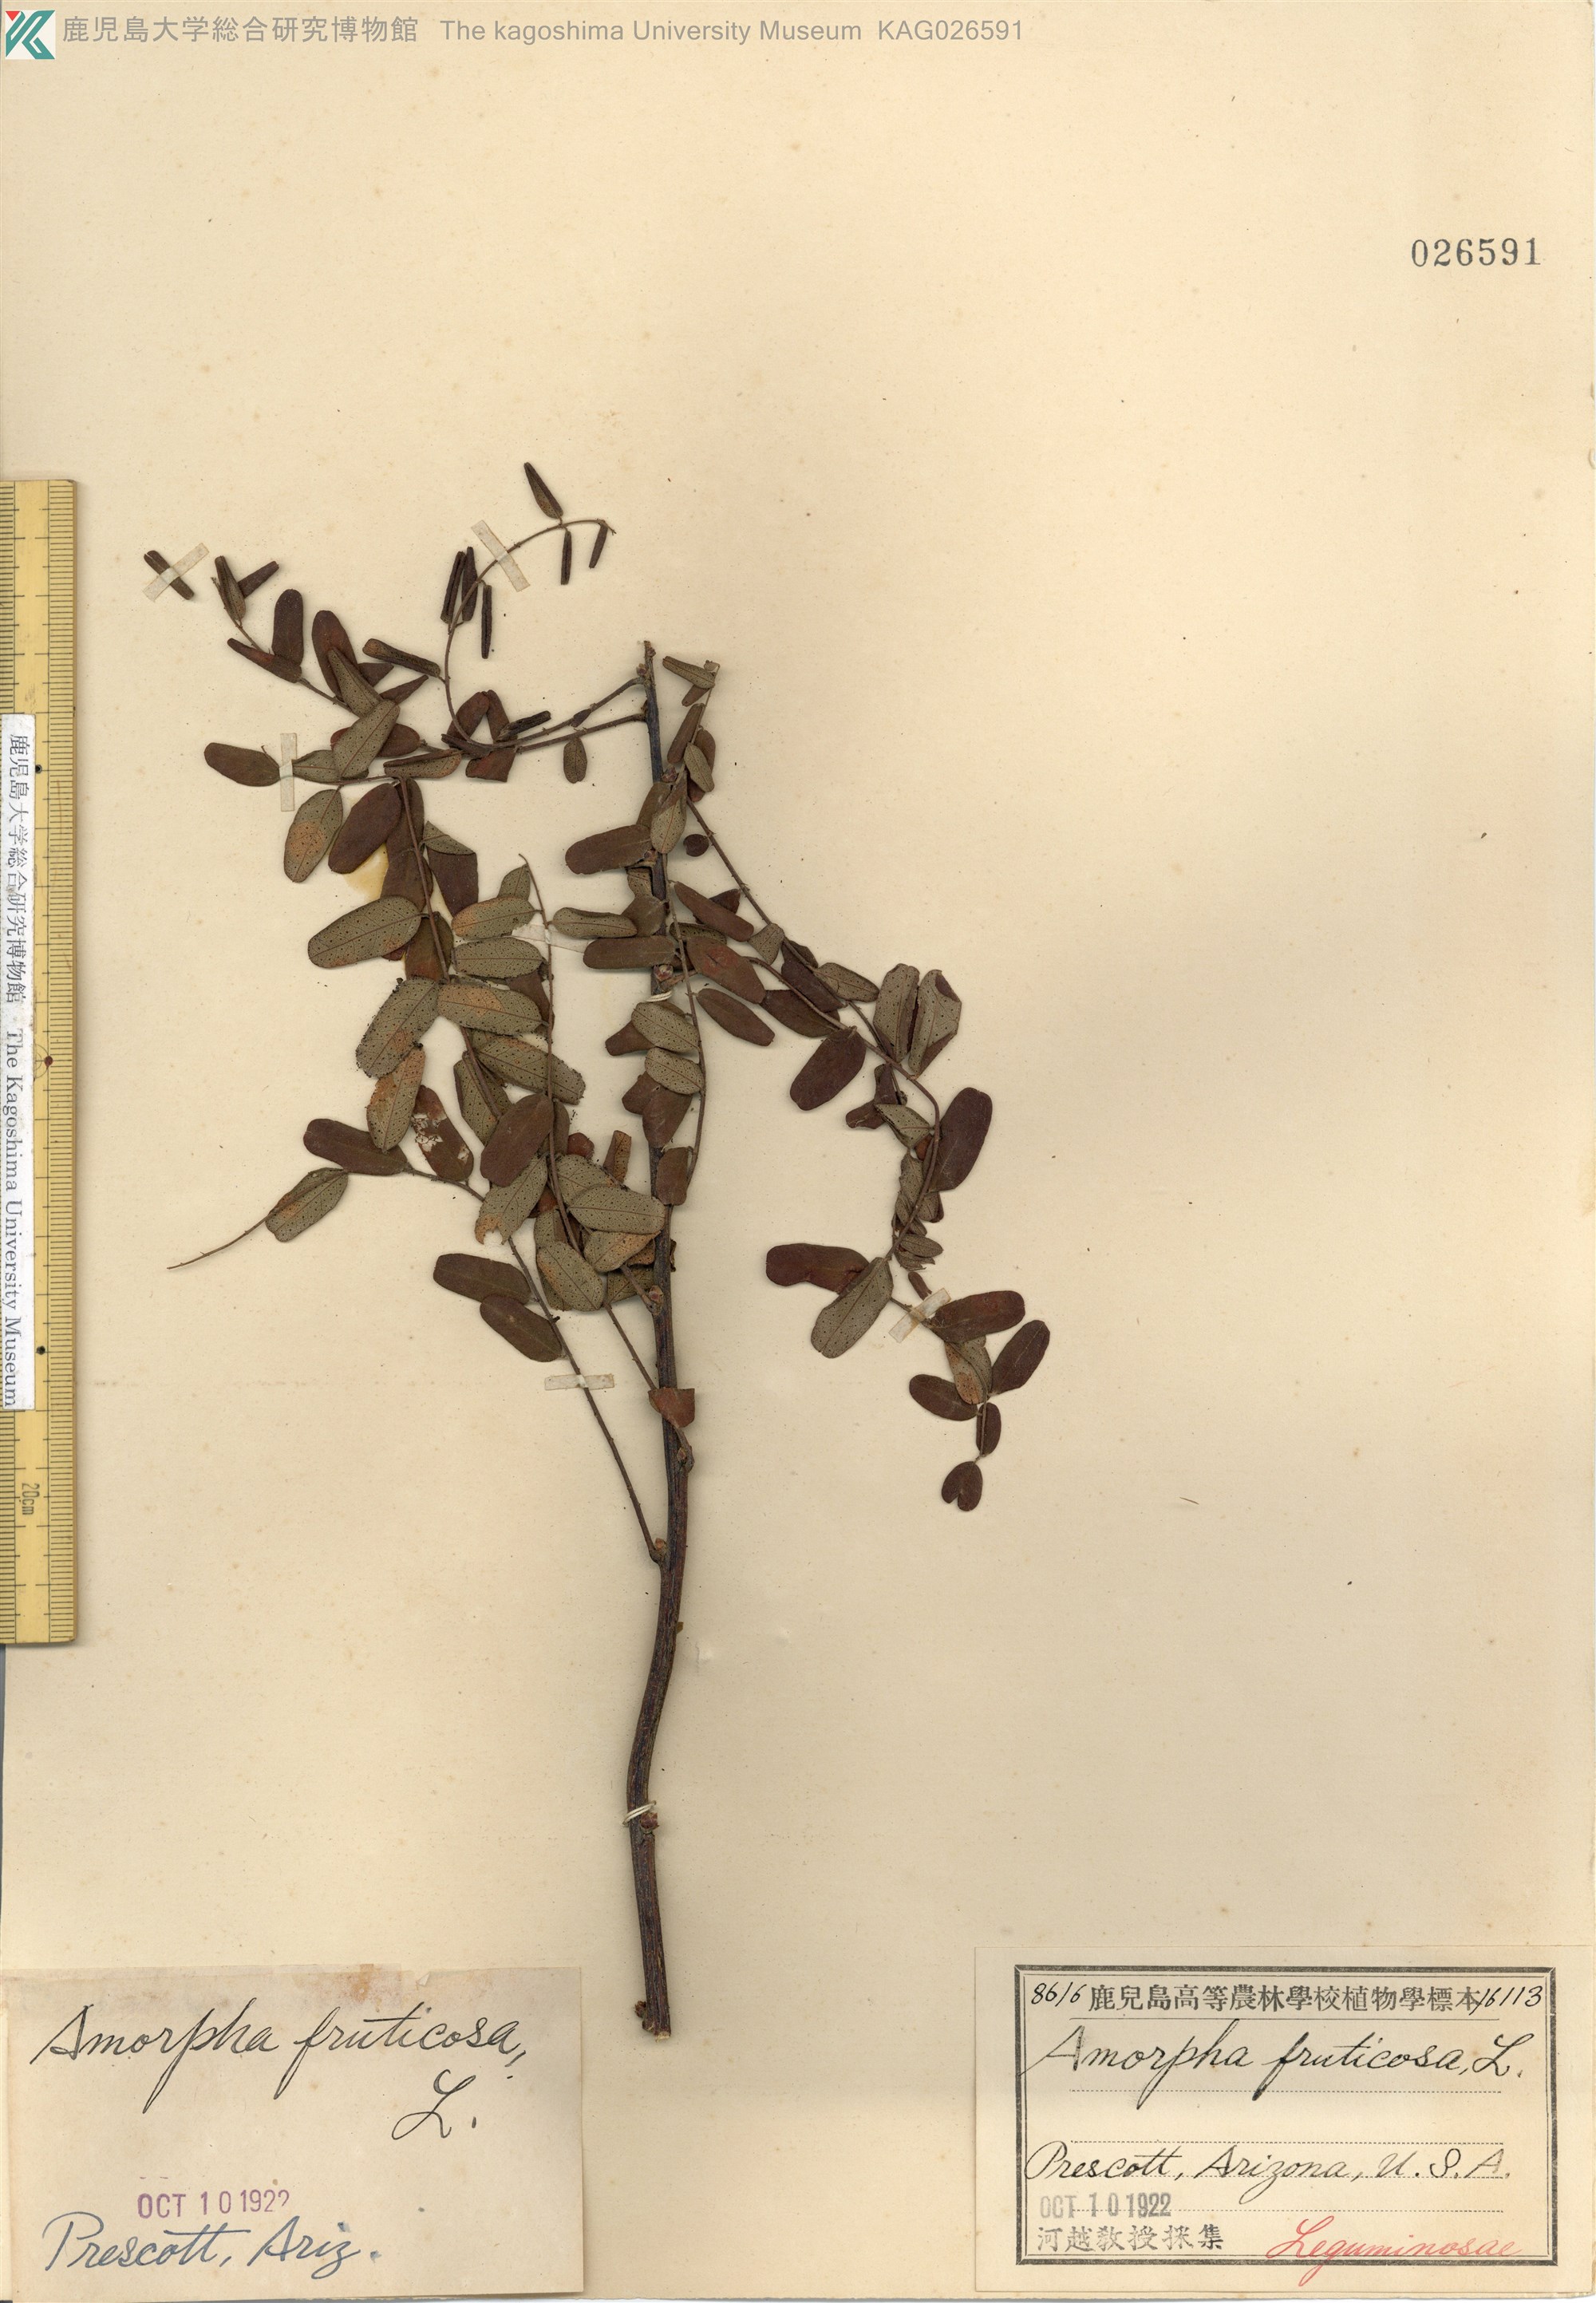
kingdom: Plantae
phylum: Tracheophyta
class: Magnoliopsida
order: Fabales
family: Fabaceae
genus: Amorpha
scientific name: Amorpha fruticosa
